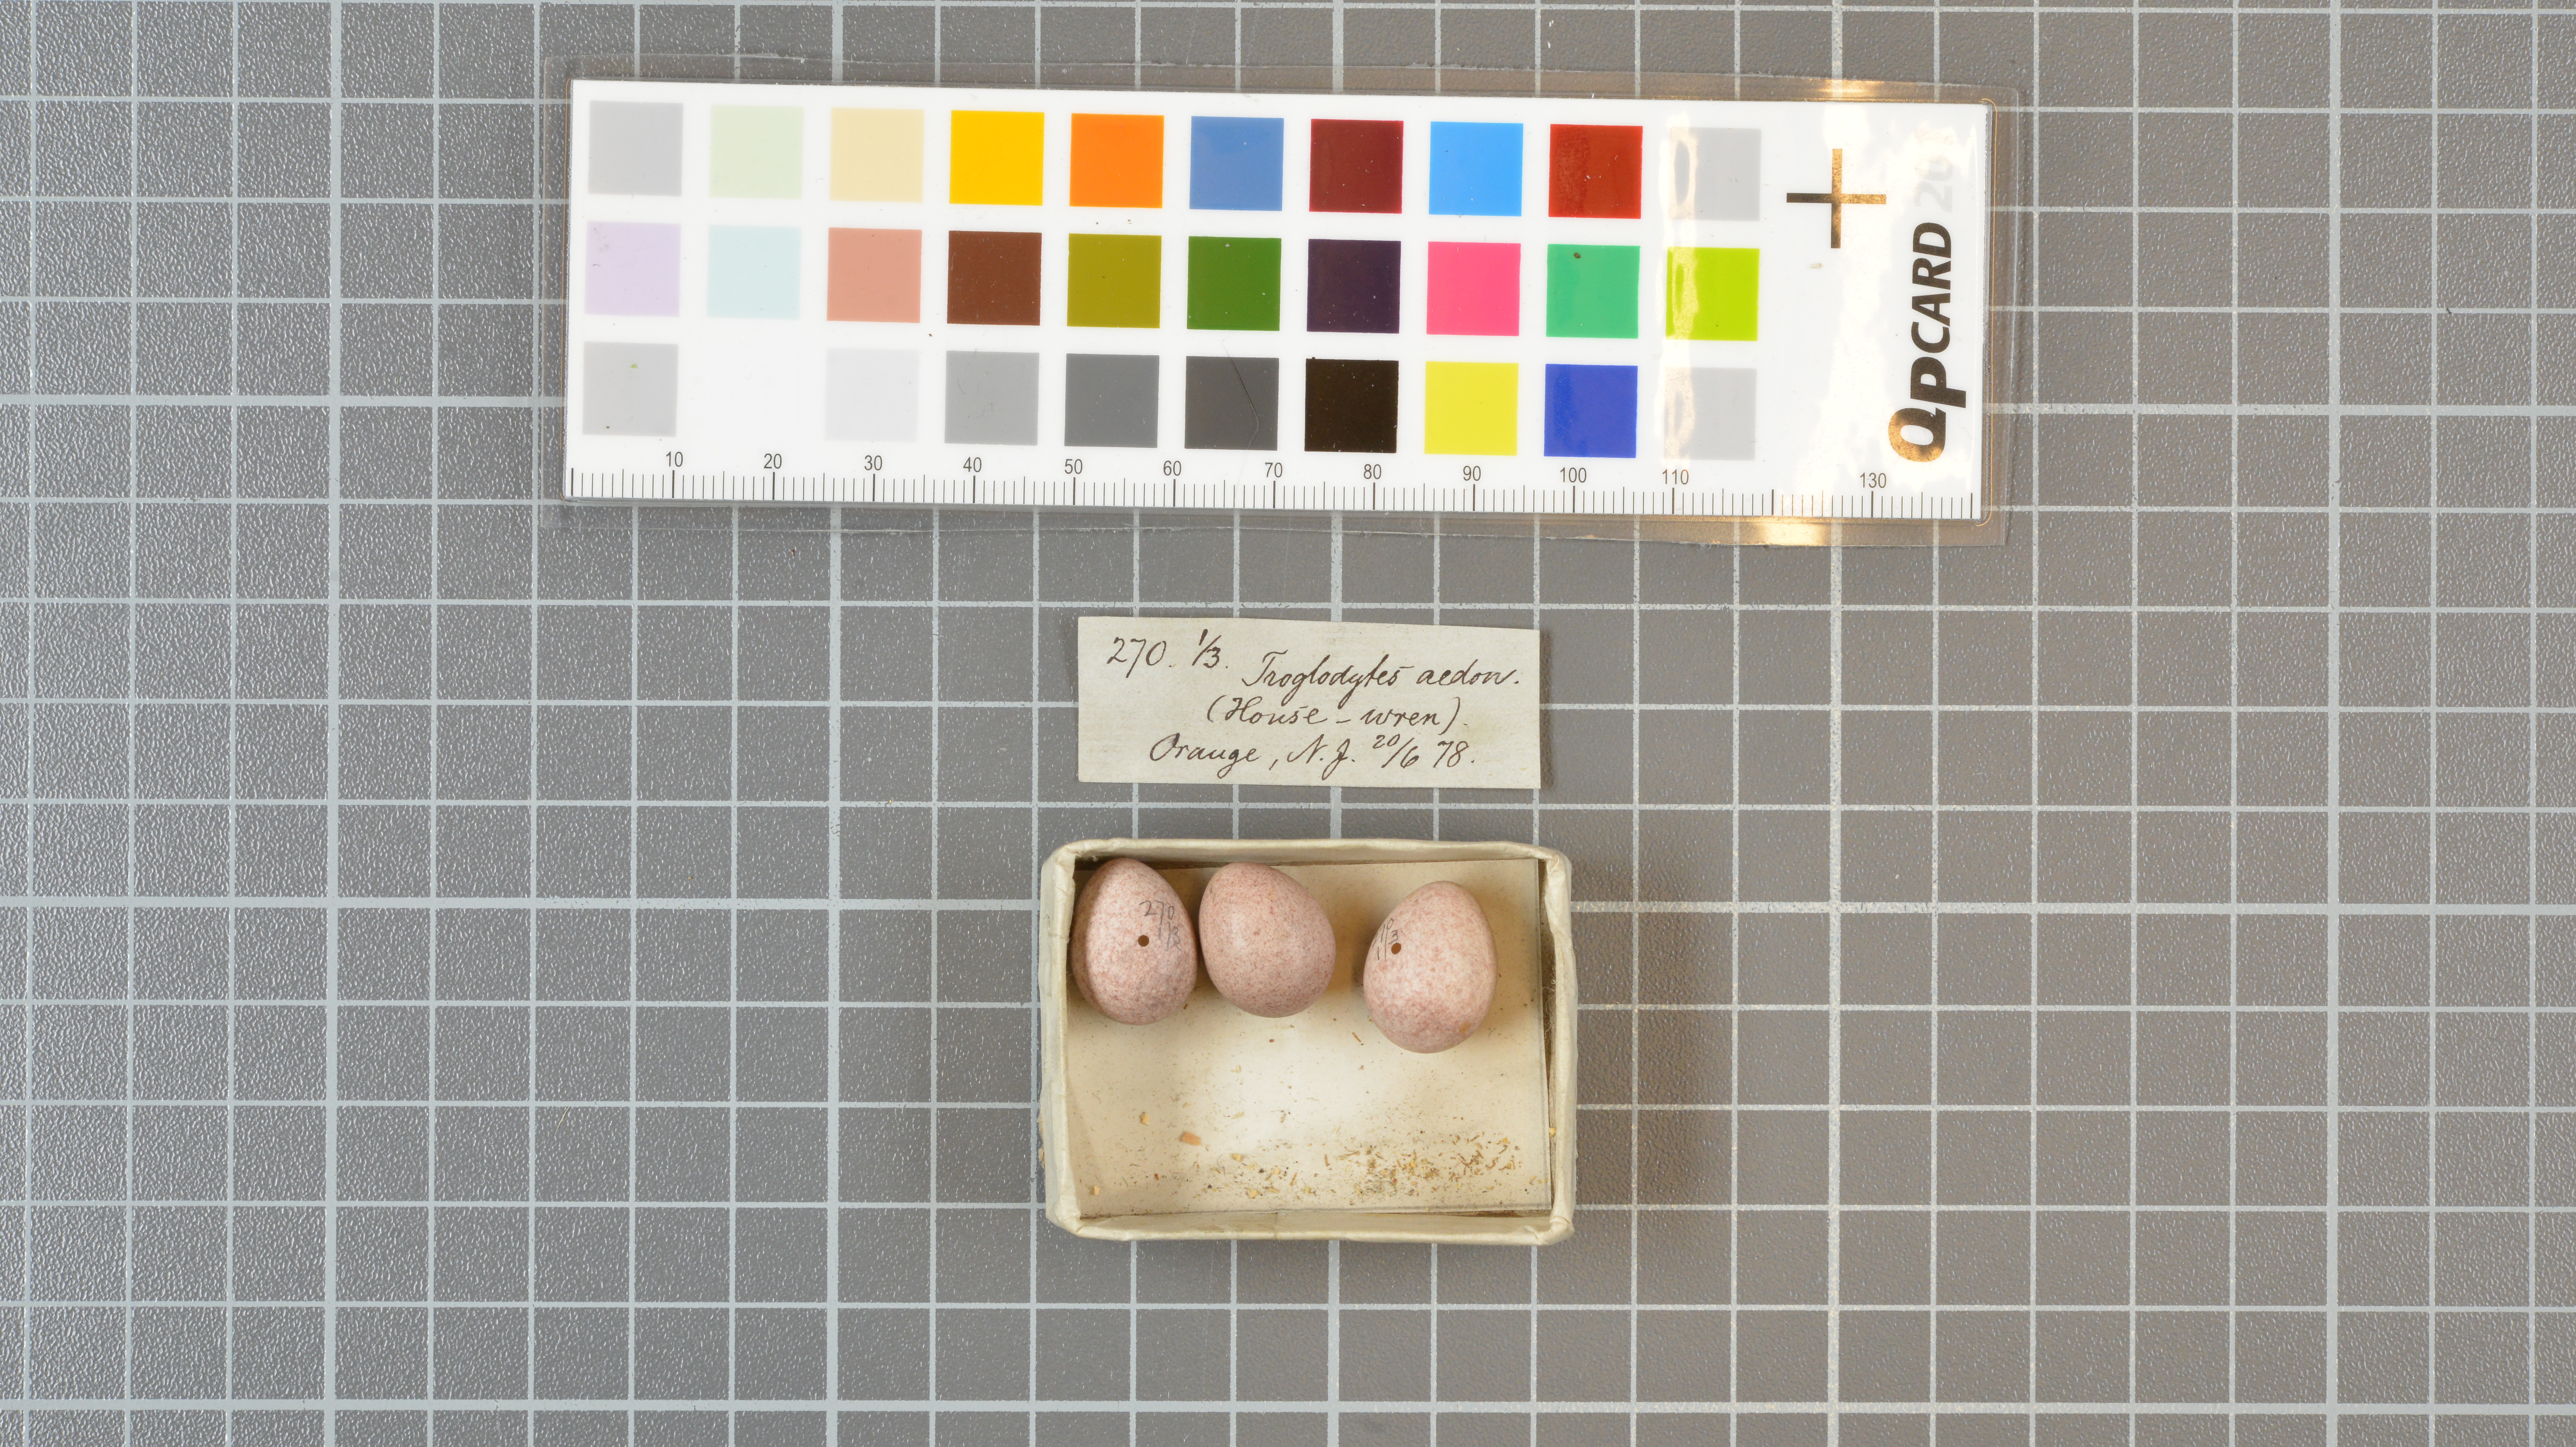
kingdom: Animalia
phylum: Chordata
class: Aves
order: Passeriformes
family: Troglodytidae
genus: Troglodytes
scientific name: Troglodytes aedon
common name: House wren
